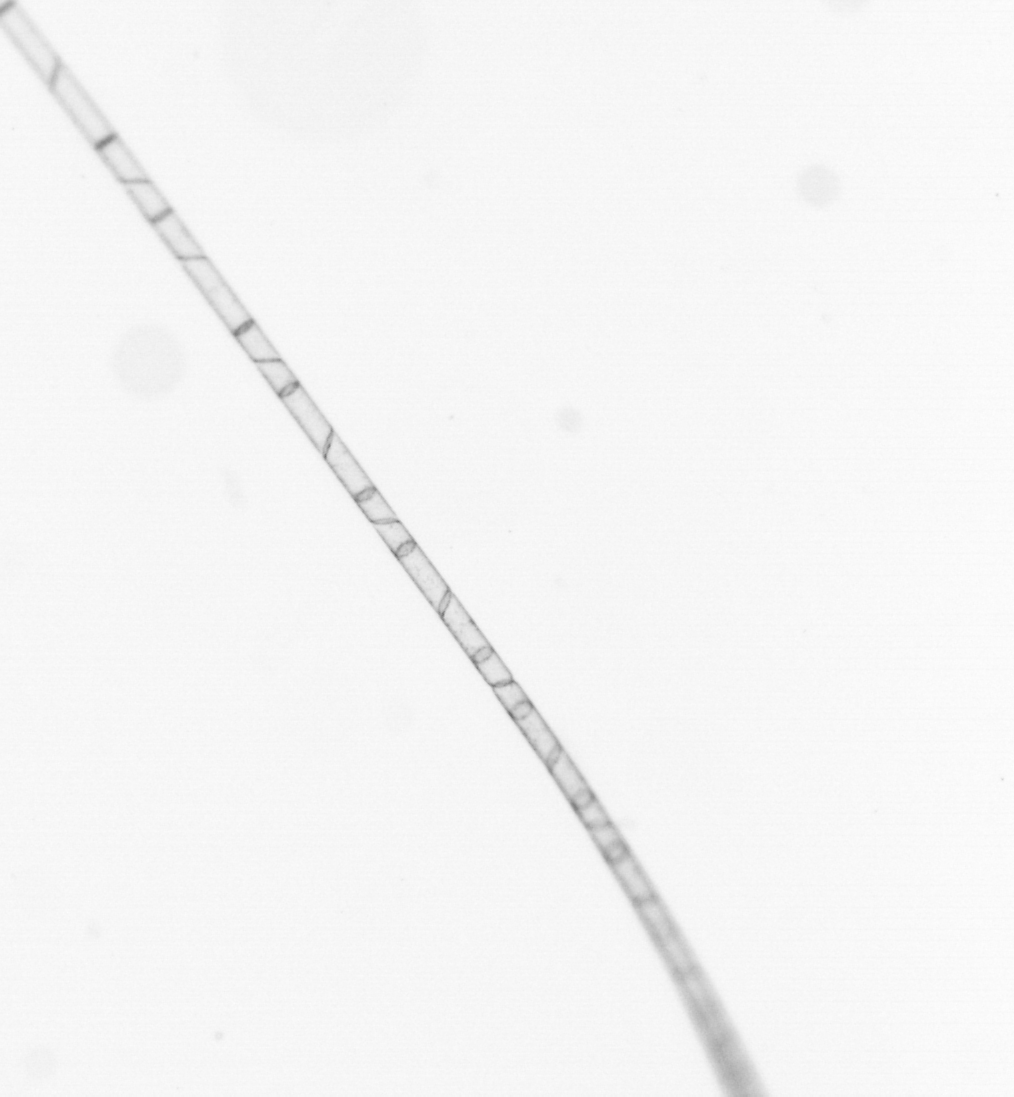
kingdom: Chromista
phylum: Ochrophyta
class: Bacillariophyceae
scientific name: Bacillariophyceae
